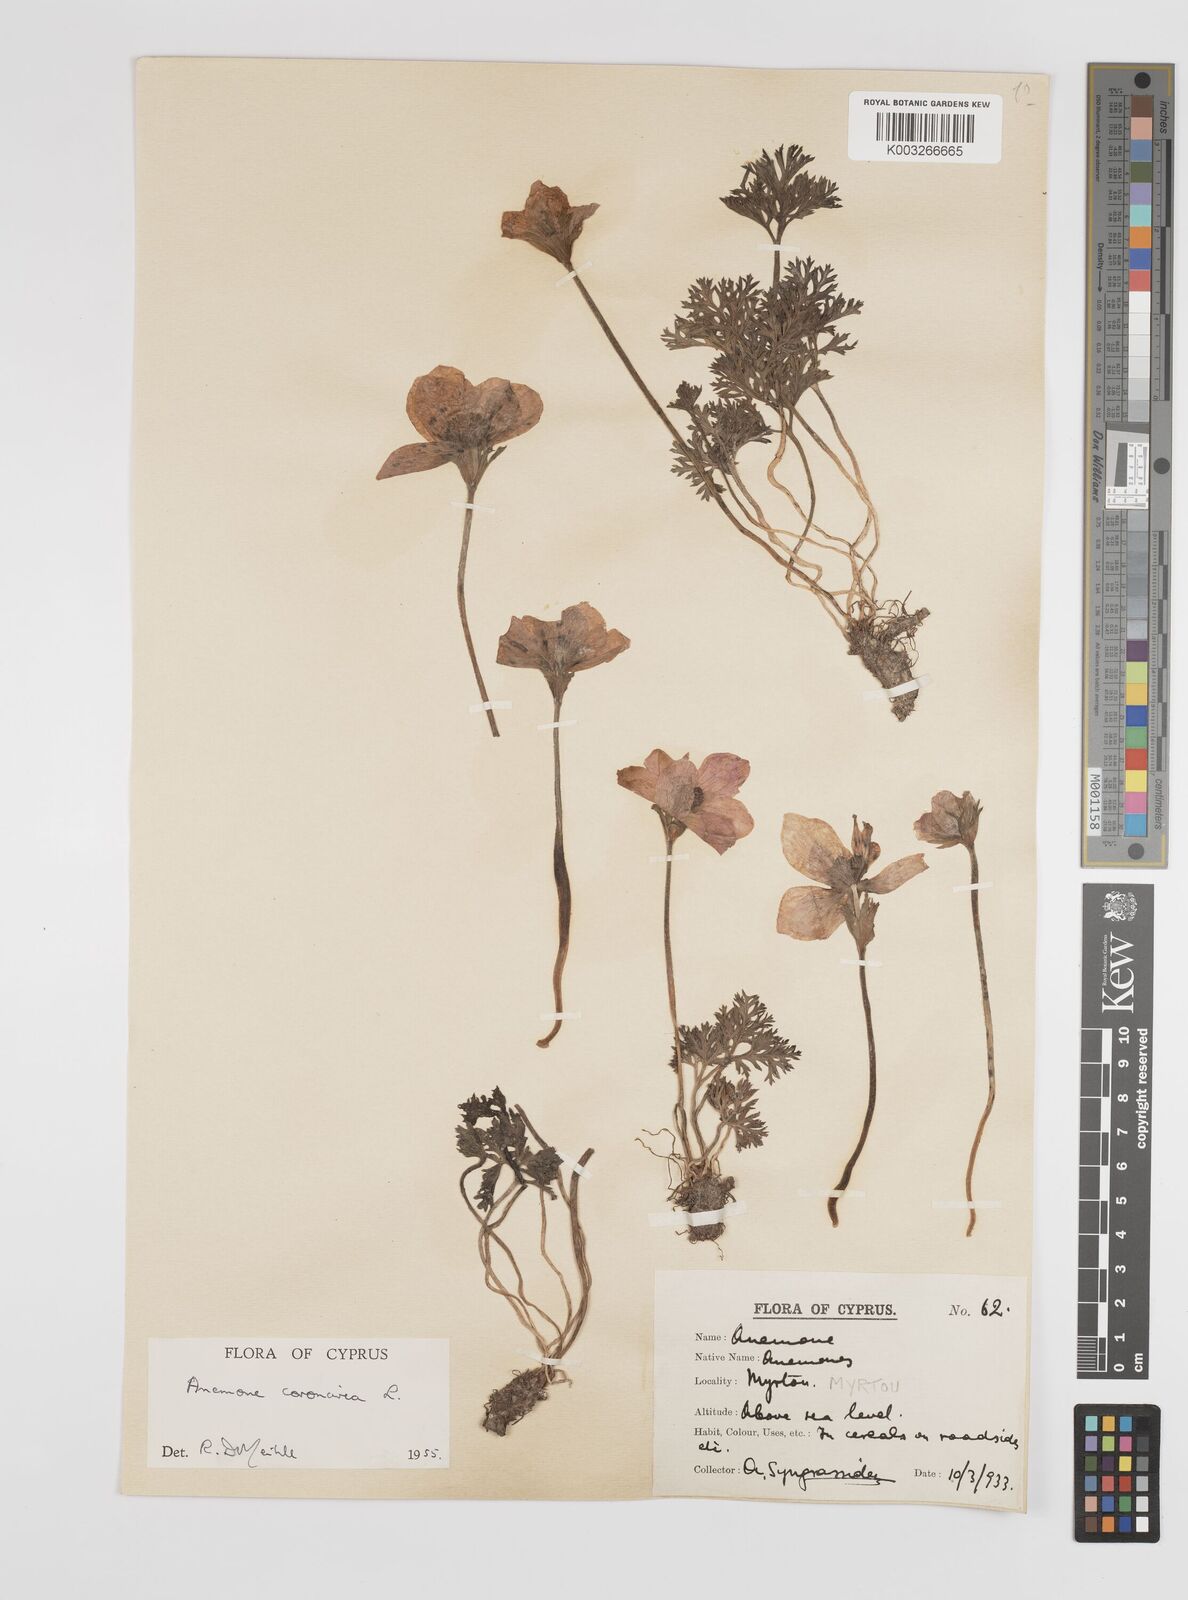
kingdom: Plantae
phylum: Tracheophyta
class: Magnoliopsida
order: Ranunculales
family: Ranunculaceae
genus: Anemone
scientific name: Anemone coronaria
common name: Poppy anemone
